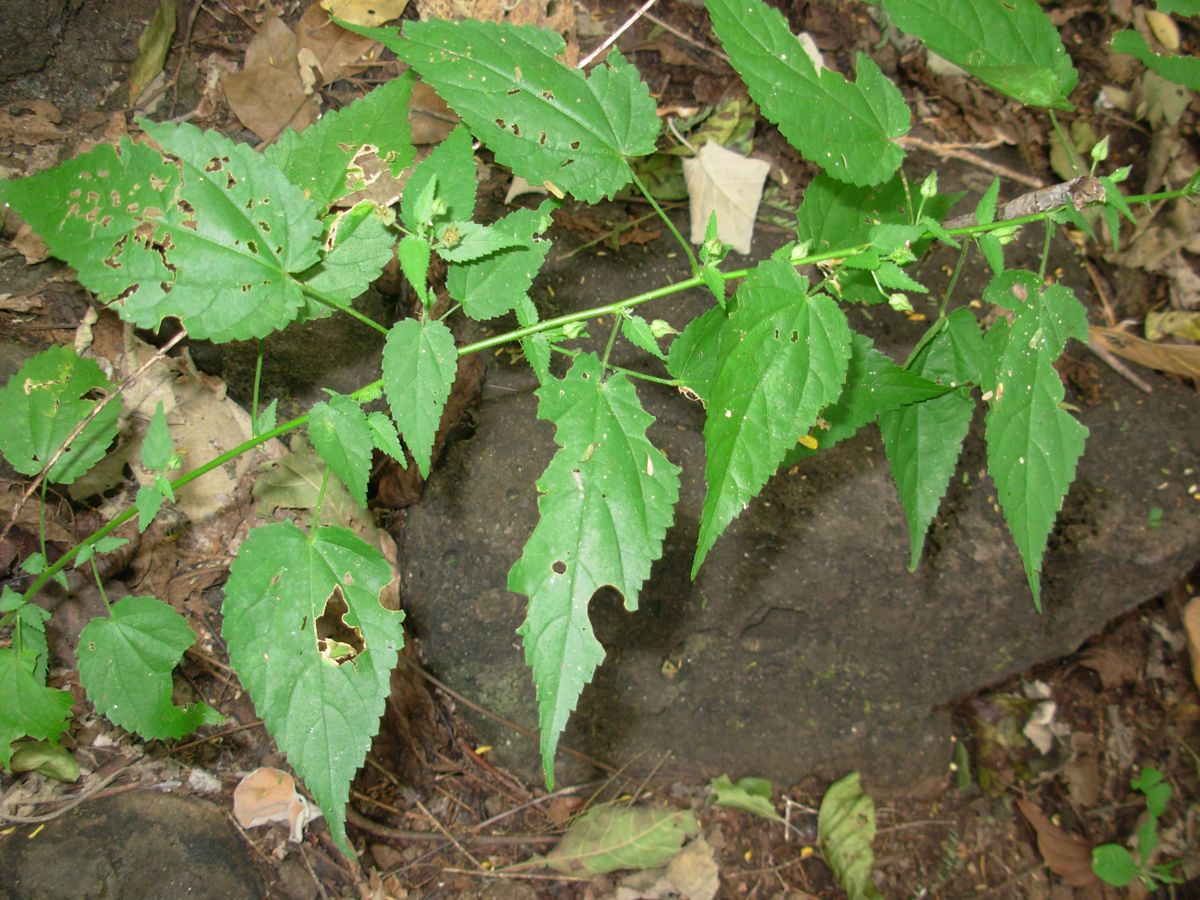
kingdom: Plantae
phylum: Tracheophyta
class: Magnoliopsida
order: Malvales
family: Malvaceae
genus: Sida
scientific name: Sida
